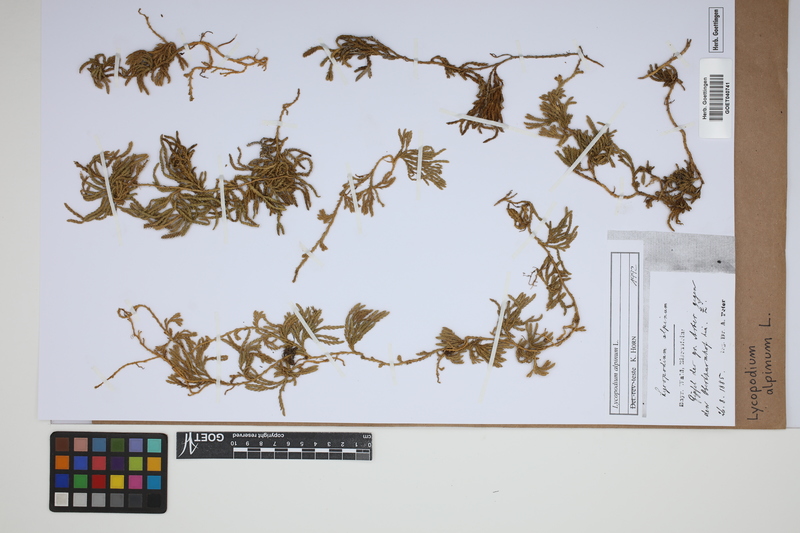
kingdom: Plantae
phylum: Tracheophyta
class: Lycopodiopsida
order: Lycopodiales
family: Lycopodiaceae
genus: Diphasiastrum
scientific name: Diphasiastrum alpinum
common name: Alpine clubmoss
